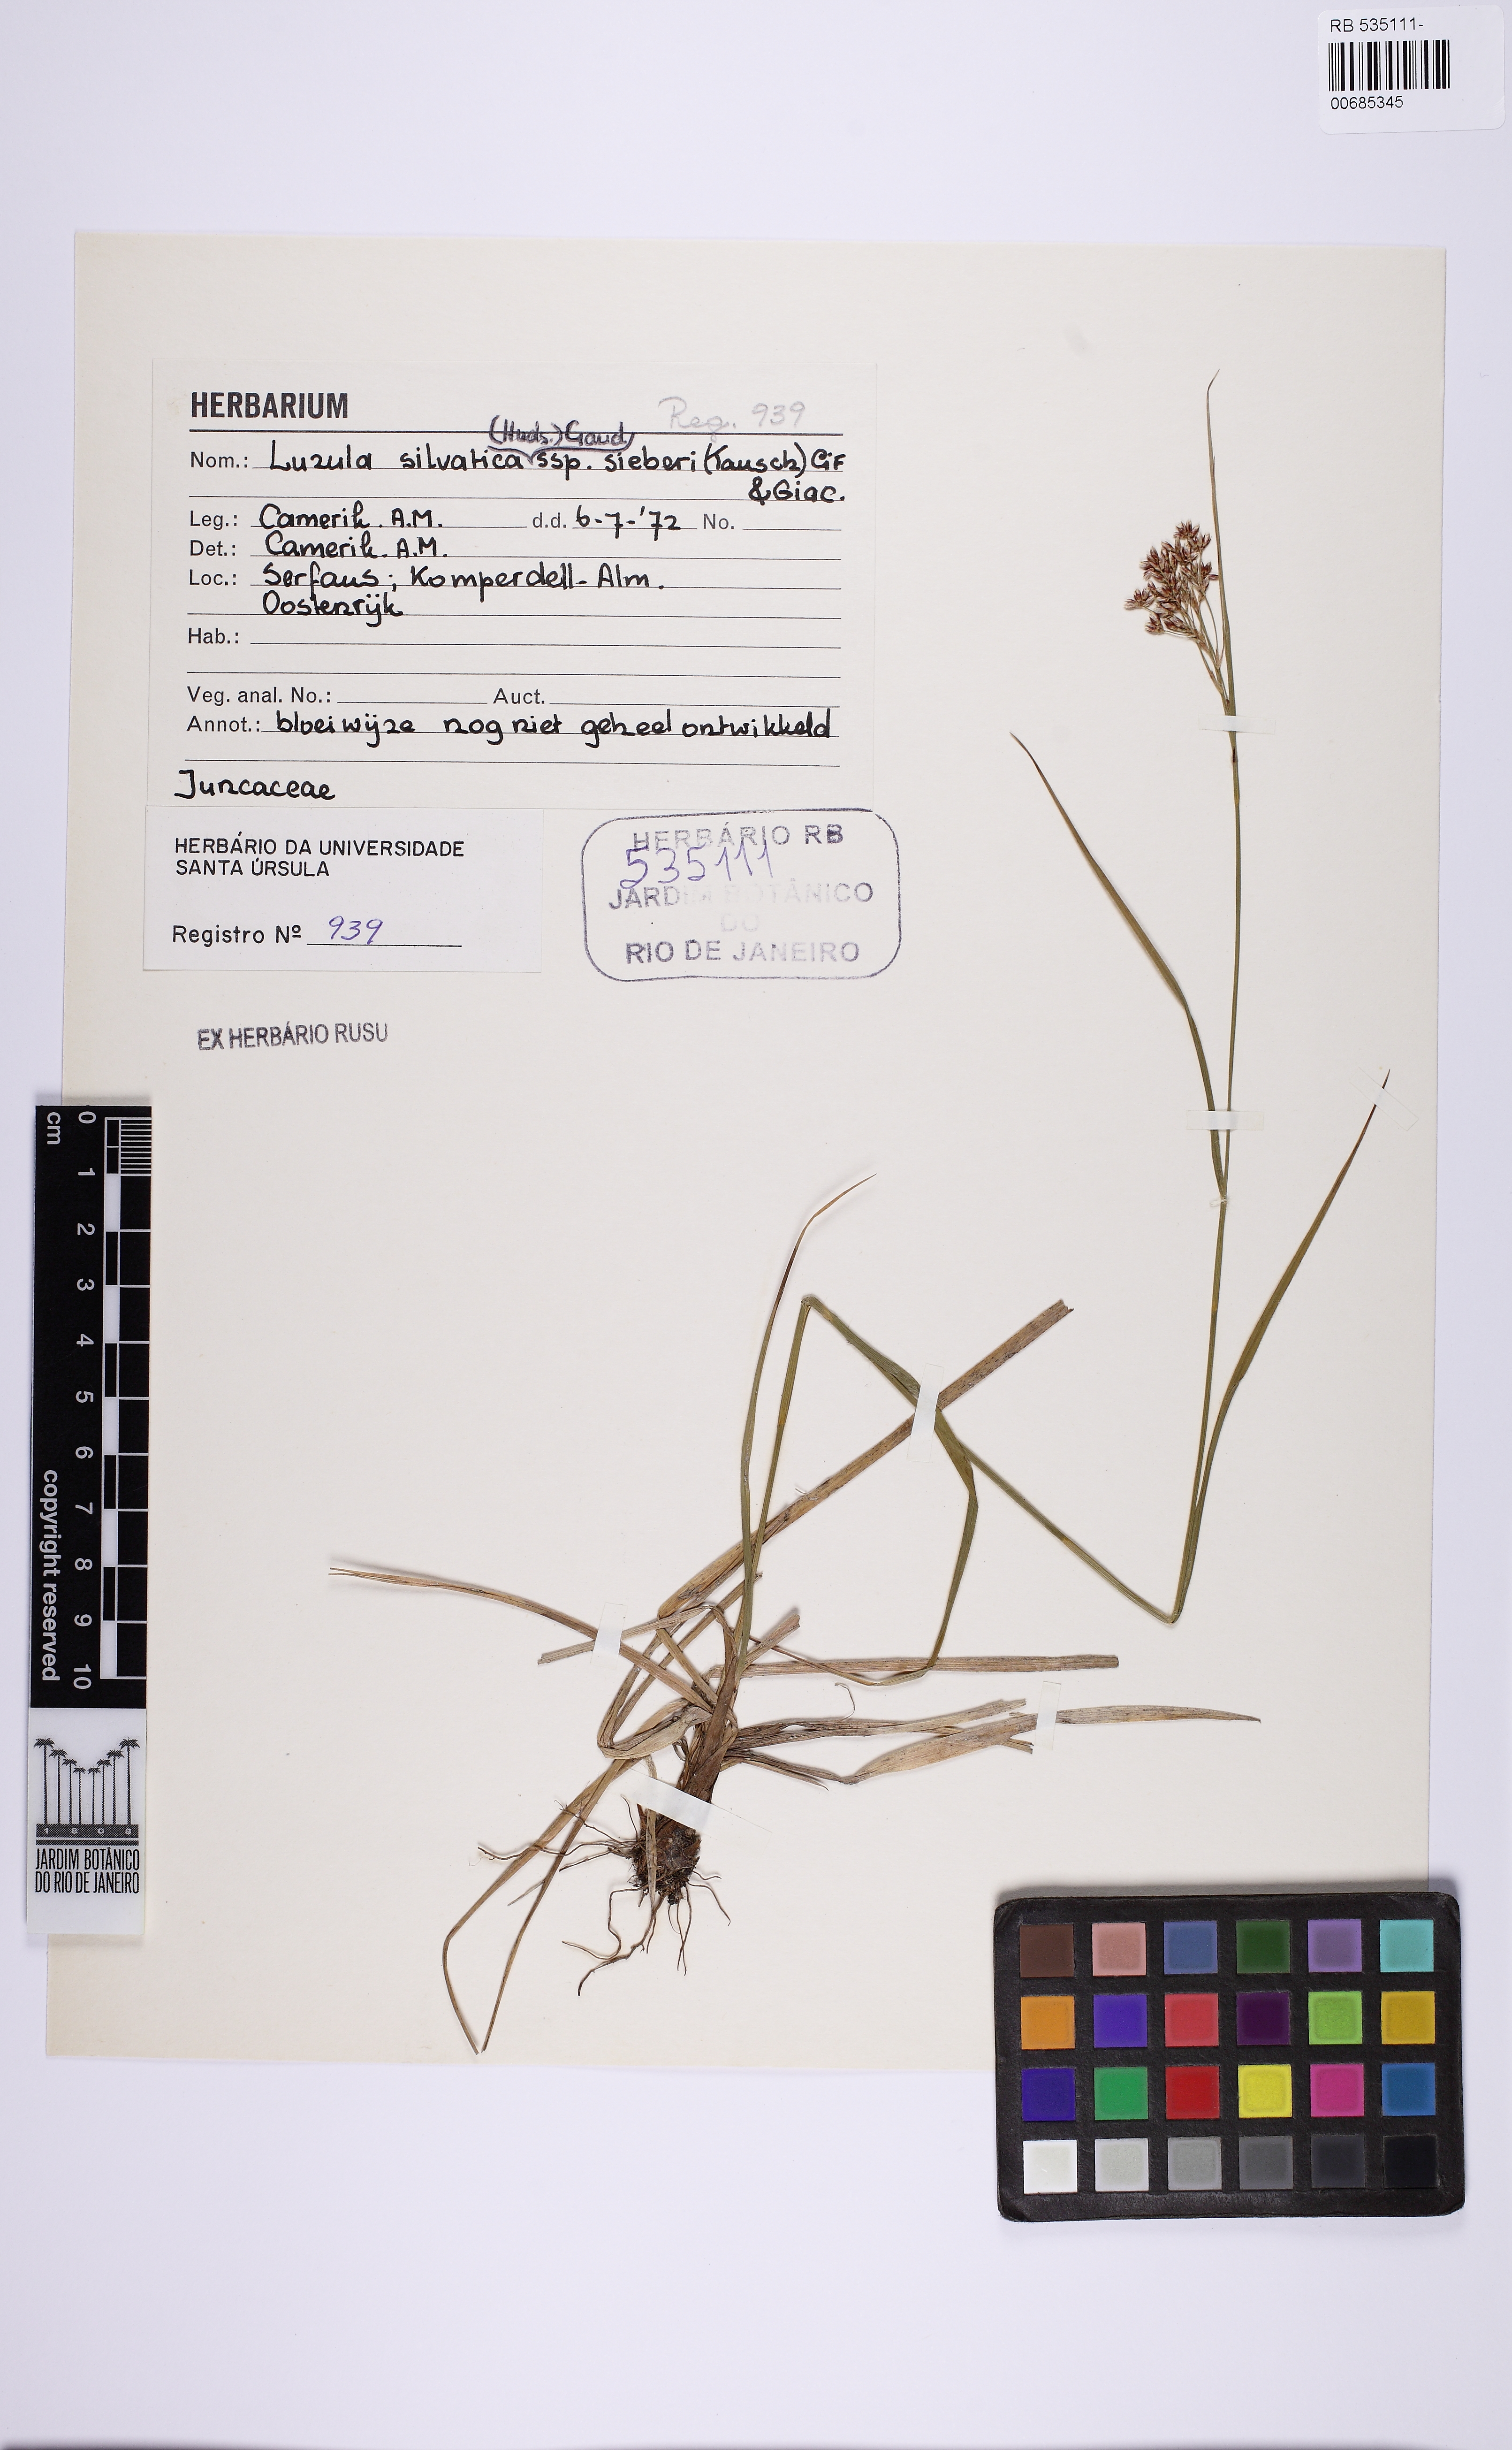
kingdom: Plantae
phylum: Tracheophyta
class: Liliopsida
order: Poales
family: Juncaceae
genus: Luzula
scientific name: Luzula sylvatica
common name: Great wood-rush
